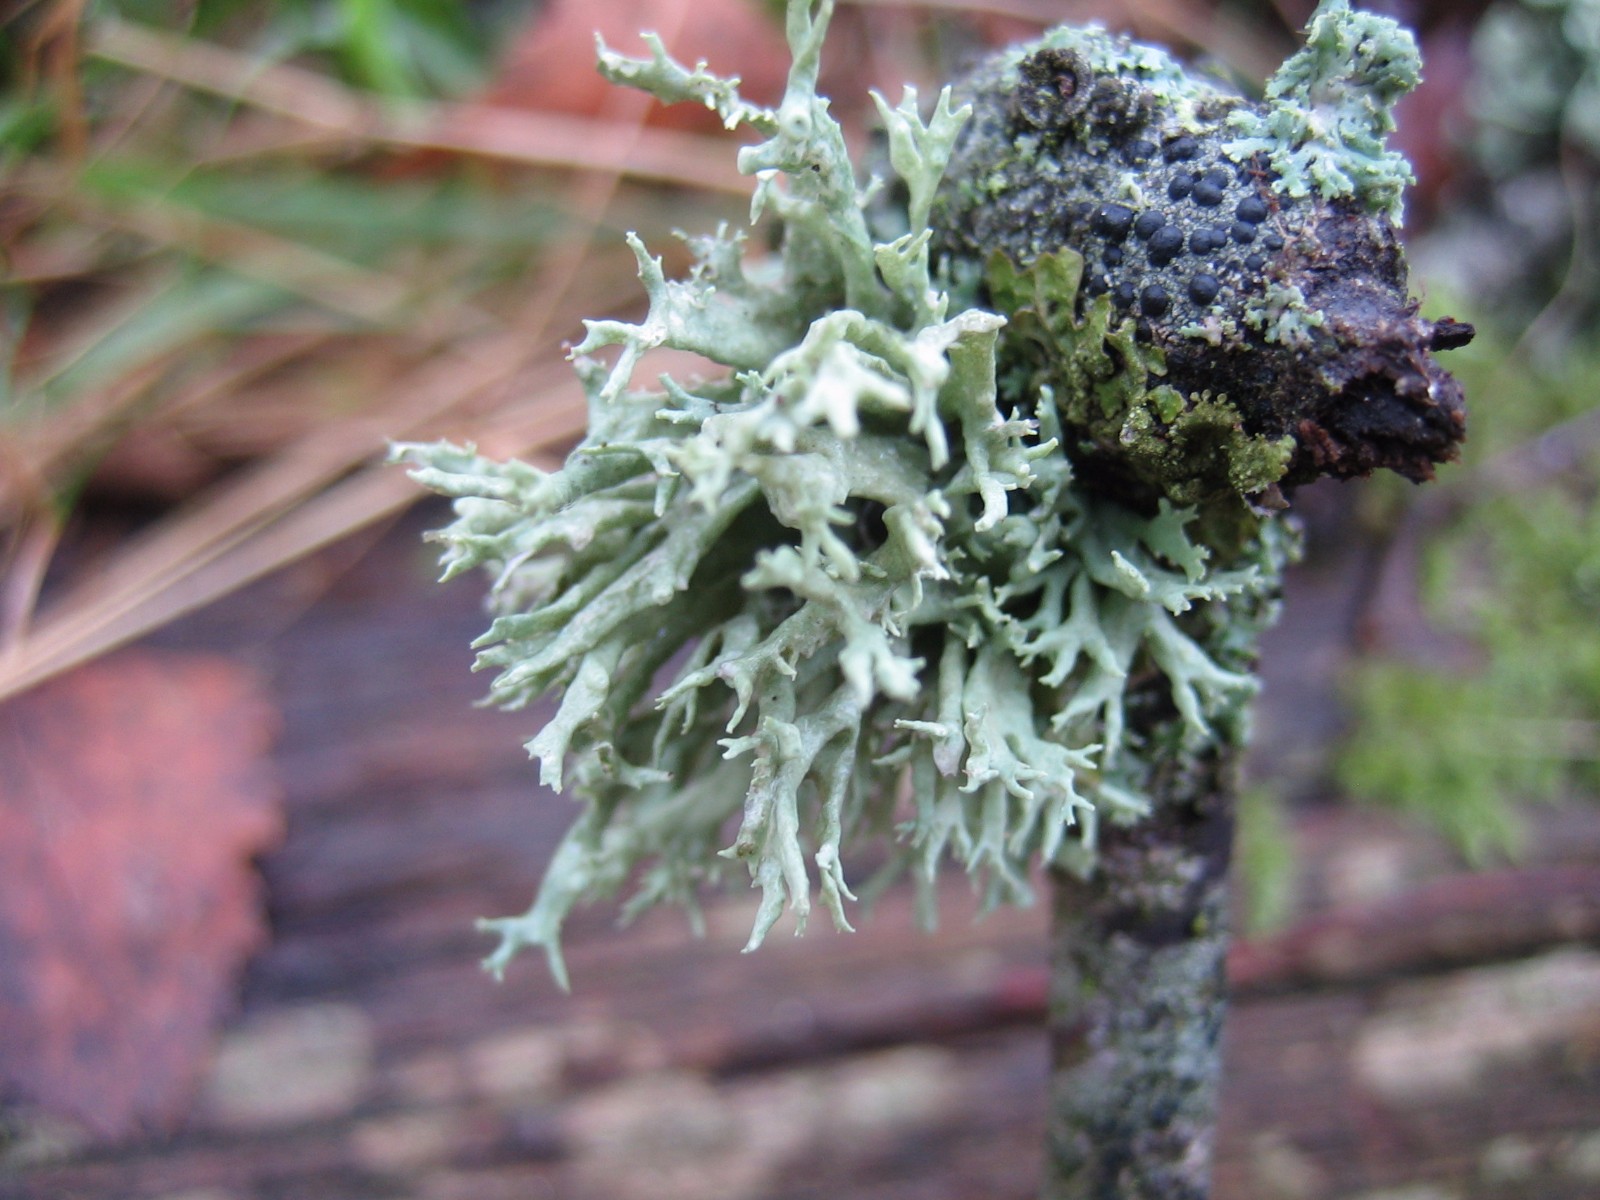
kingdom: Fungi
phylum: Ascomycota
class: Lecanoromycetes
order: Lecanorales
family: Ramalinaceae
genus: Ramalina
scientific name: Ramalina fastigiata
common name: tue-grenlav
